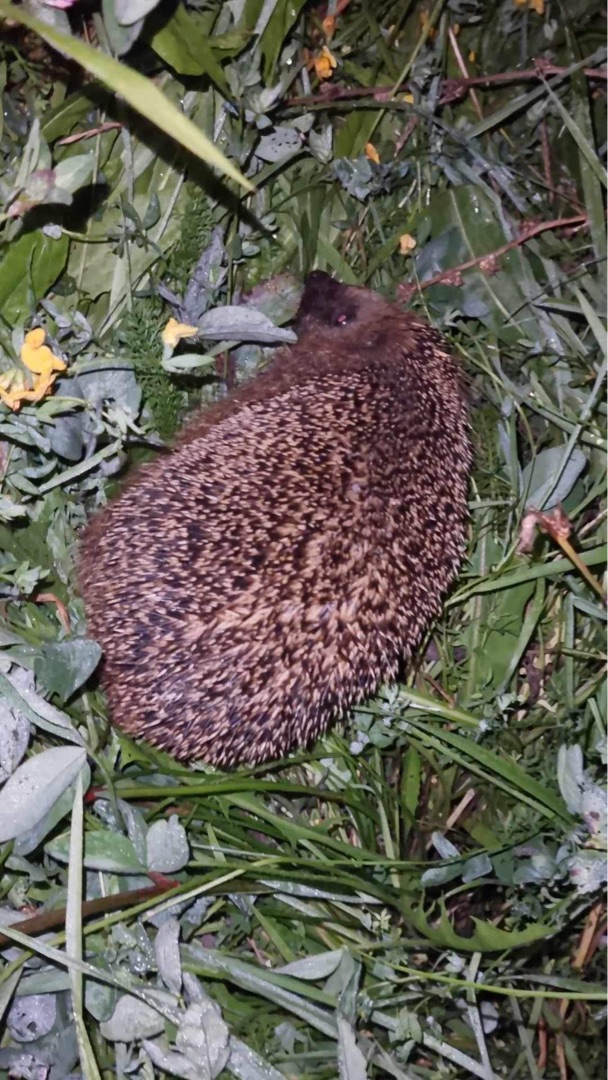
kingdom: Animalia
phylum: Chordata
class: Mammalia
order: Erinaceomorpha
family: Erinaceidae
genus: Erinaceus
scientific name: Erinaceus europaeus
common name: Pindsvin
